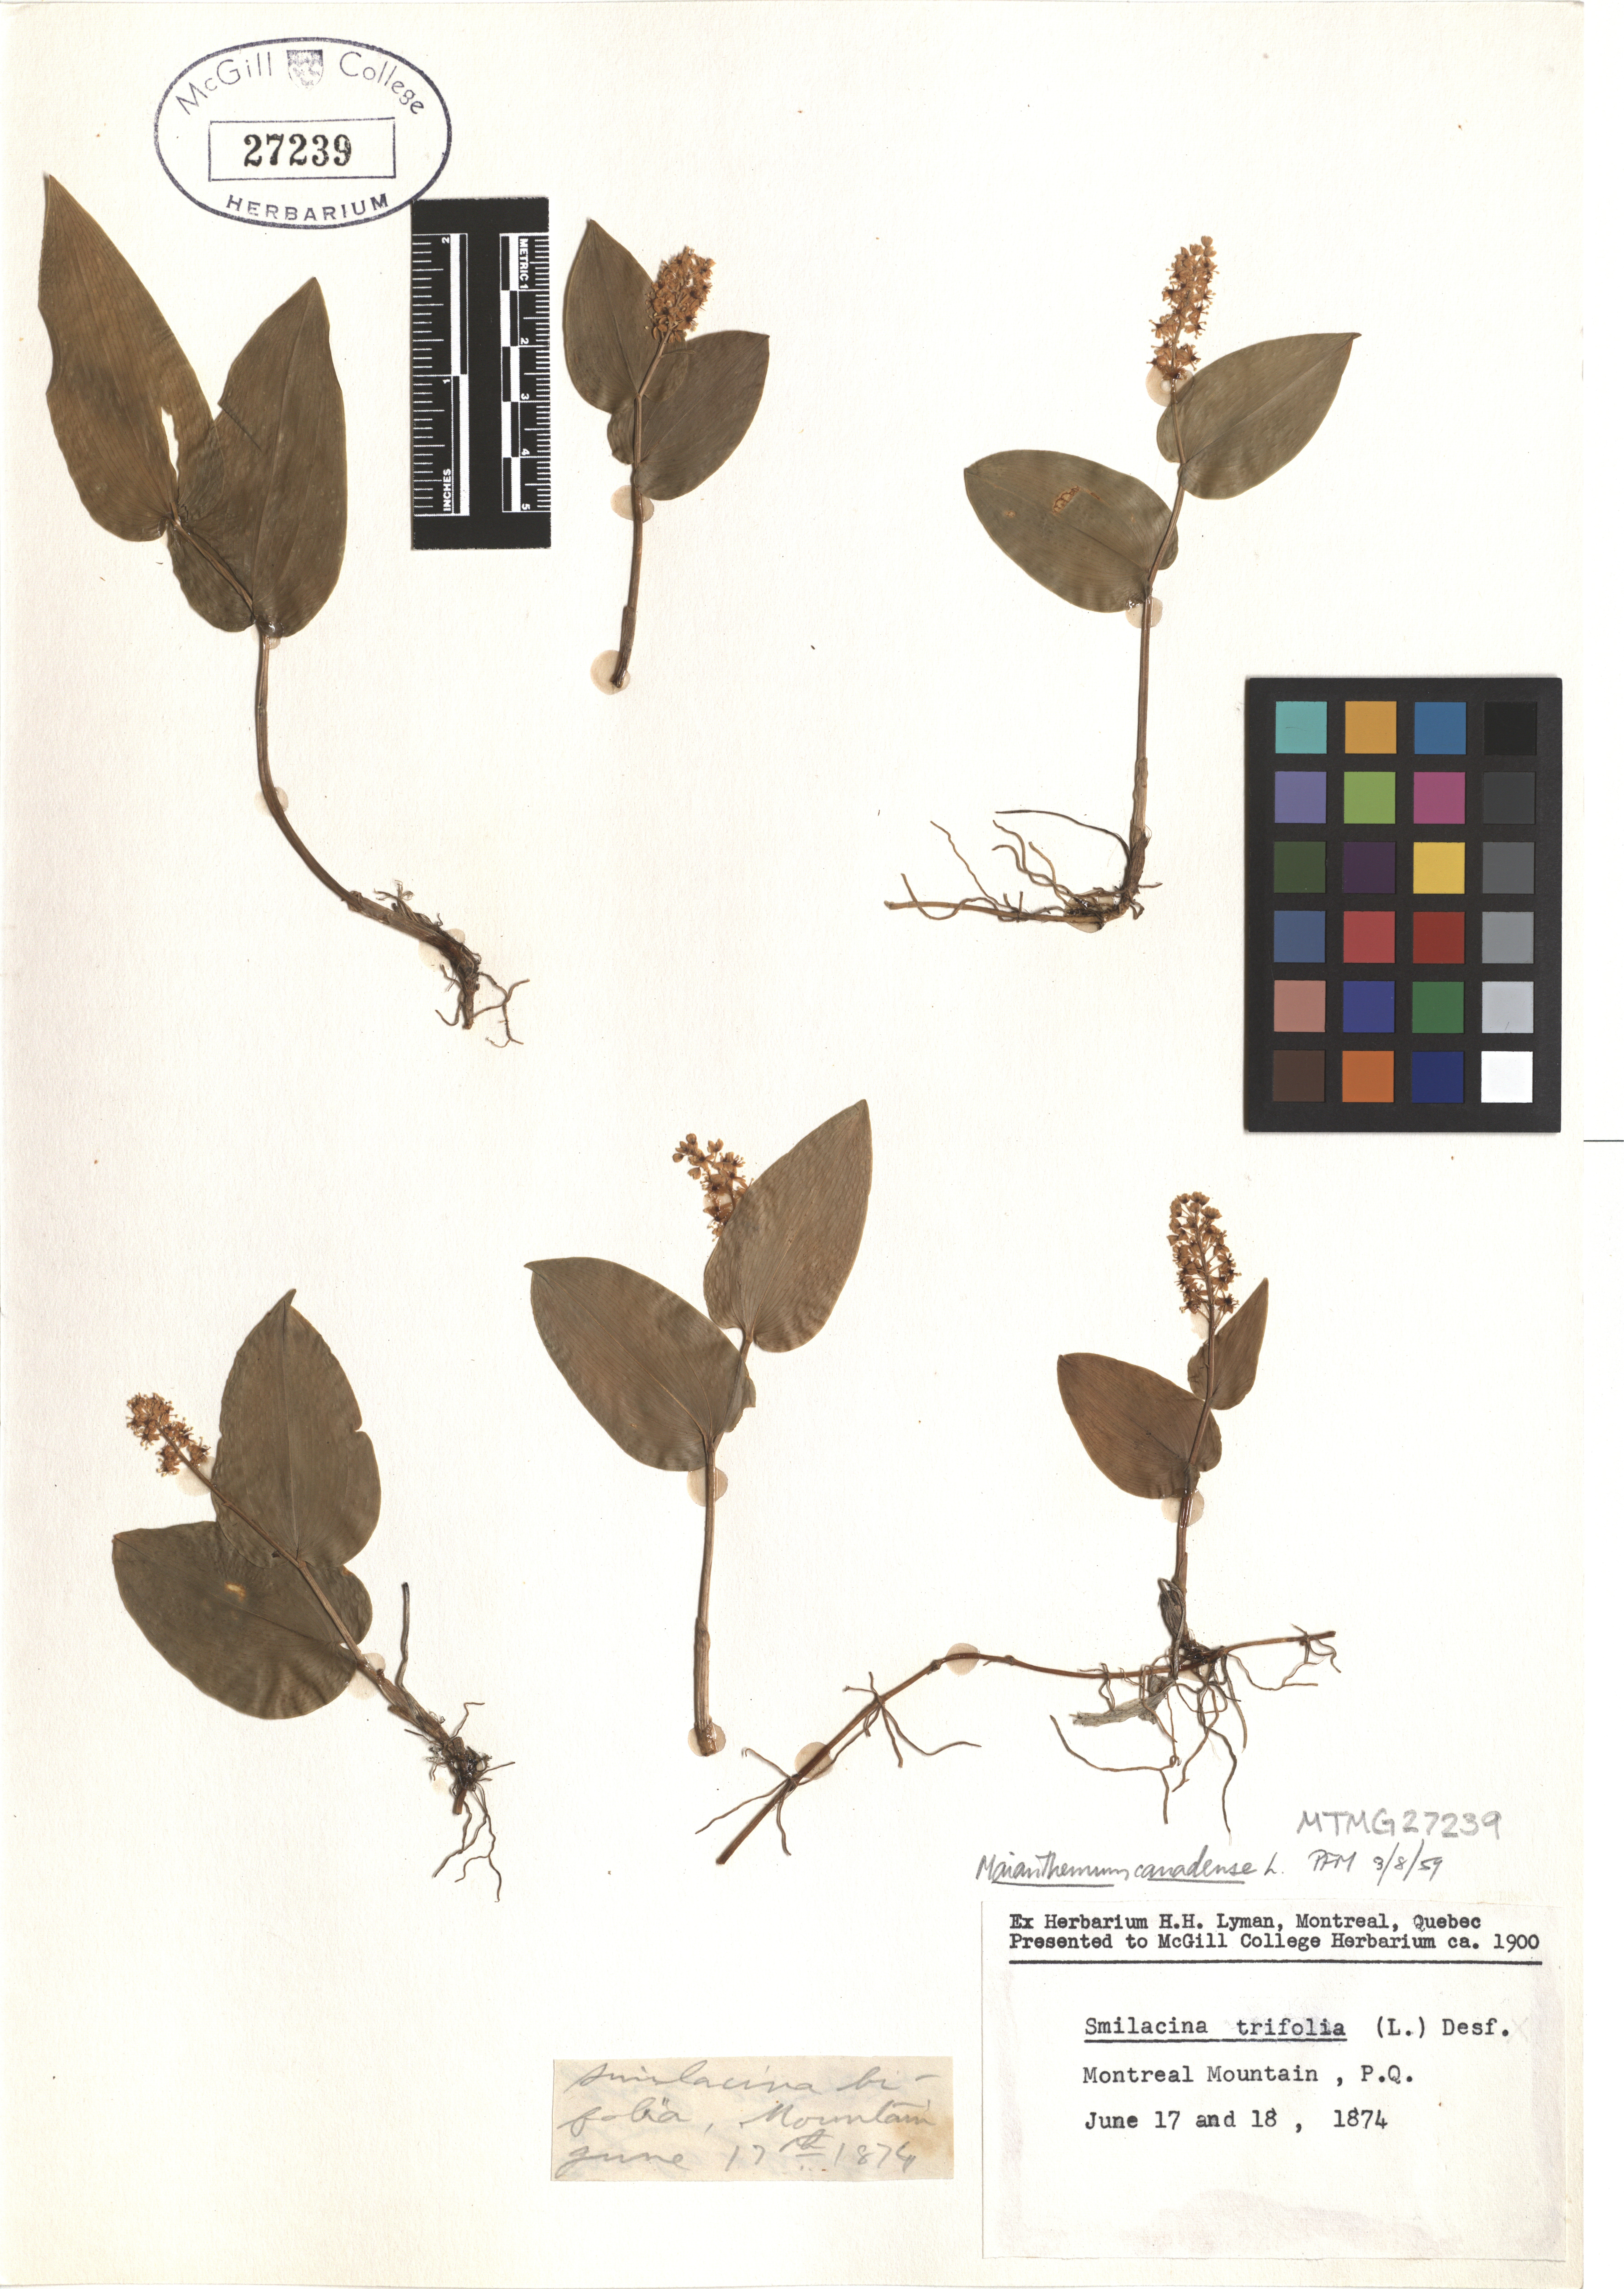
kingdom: Plantae
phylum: Tracheophyta
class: Liliopsida
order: Asparagales
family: Asparagaceae
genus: Maianthemum
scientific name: Maianthemum canadense
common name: False lily-of-the-valley
